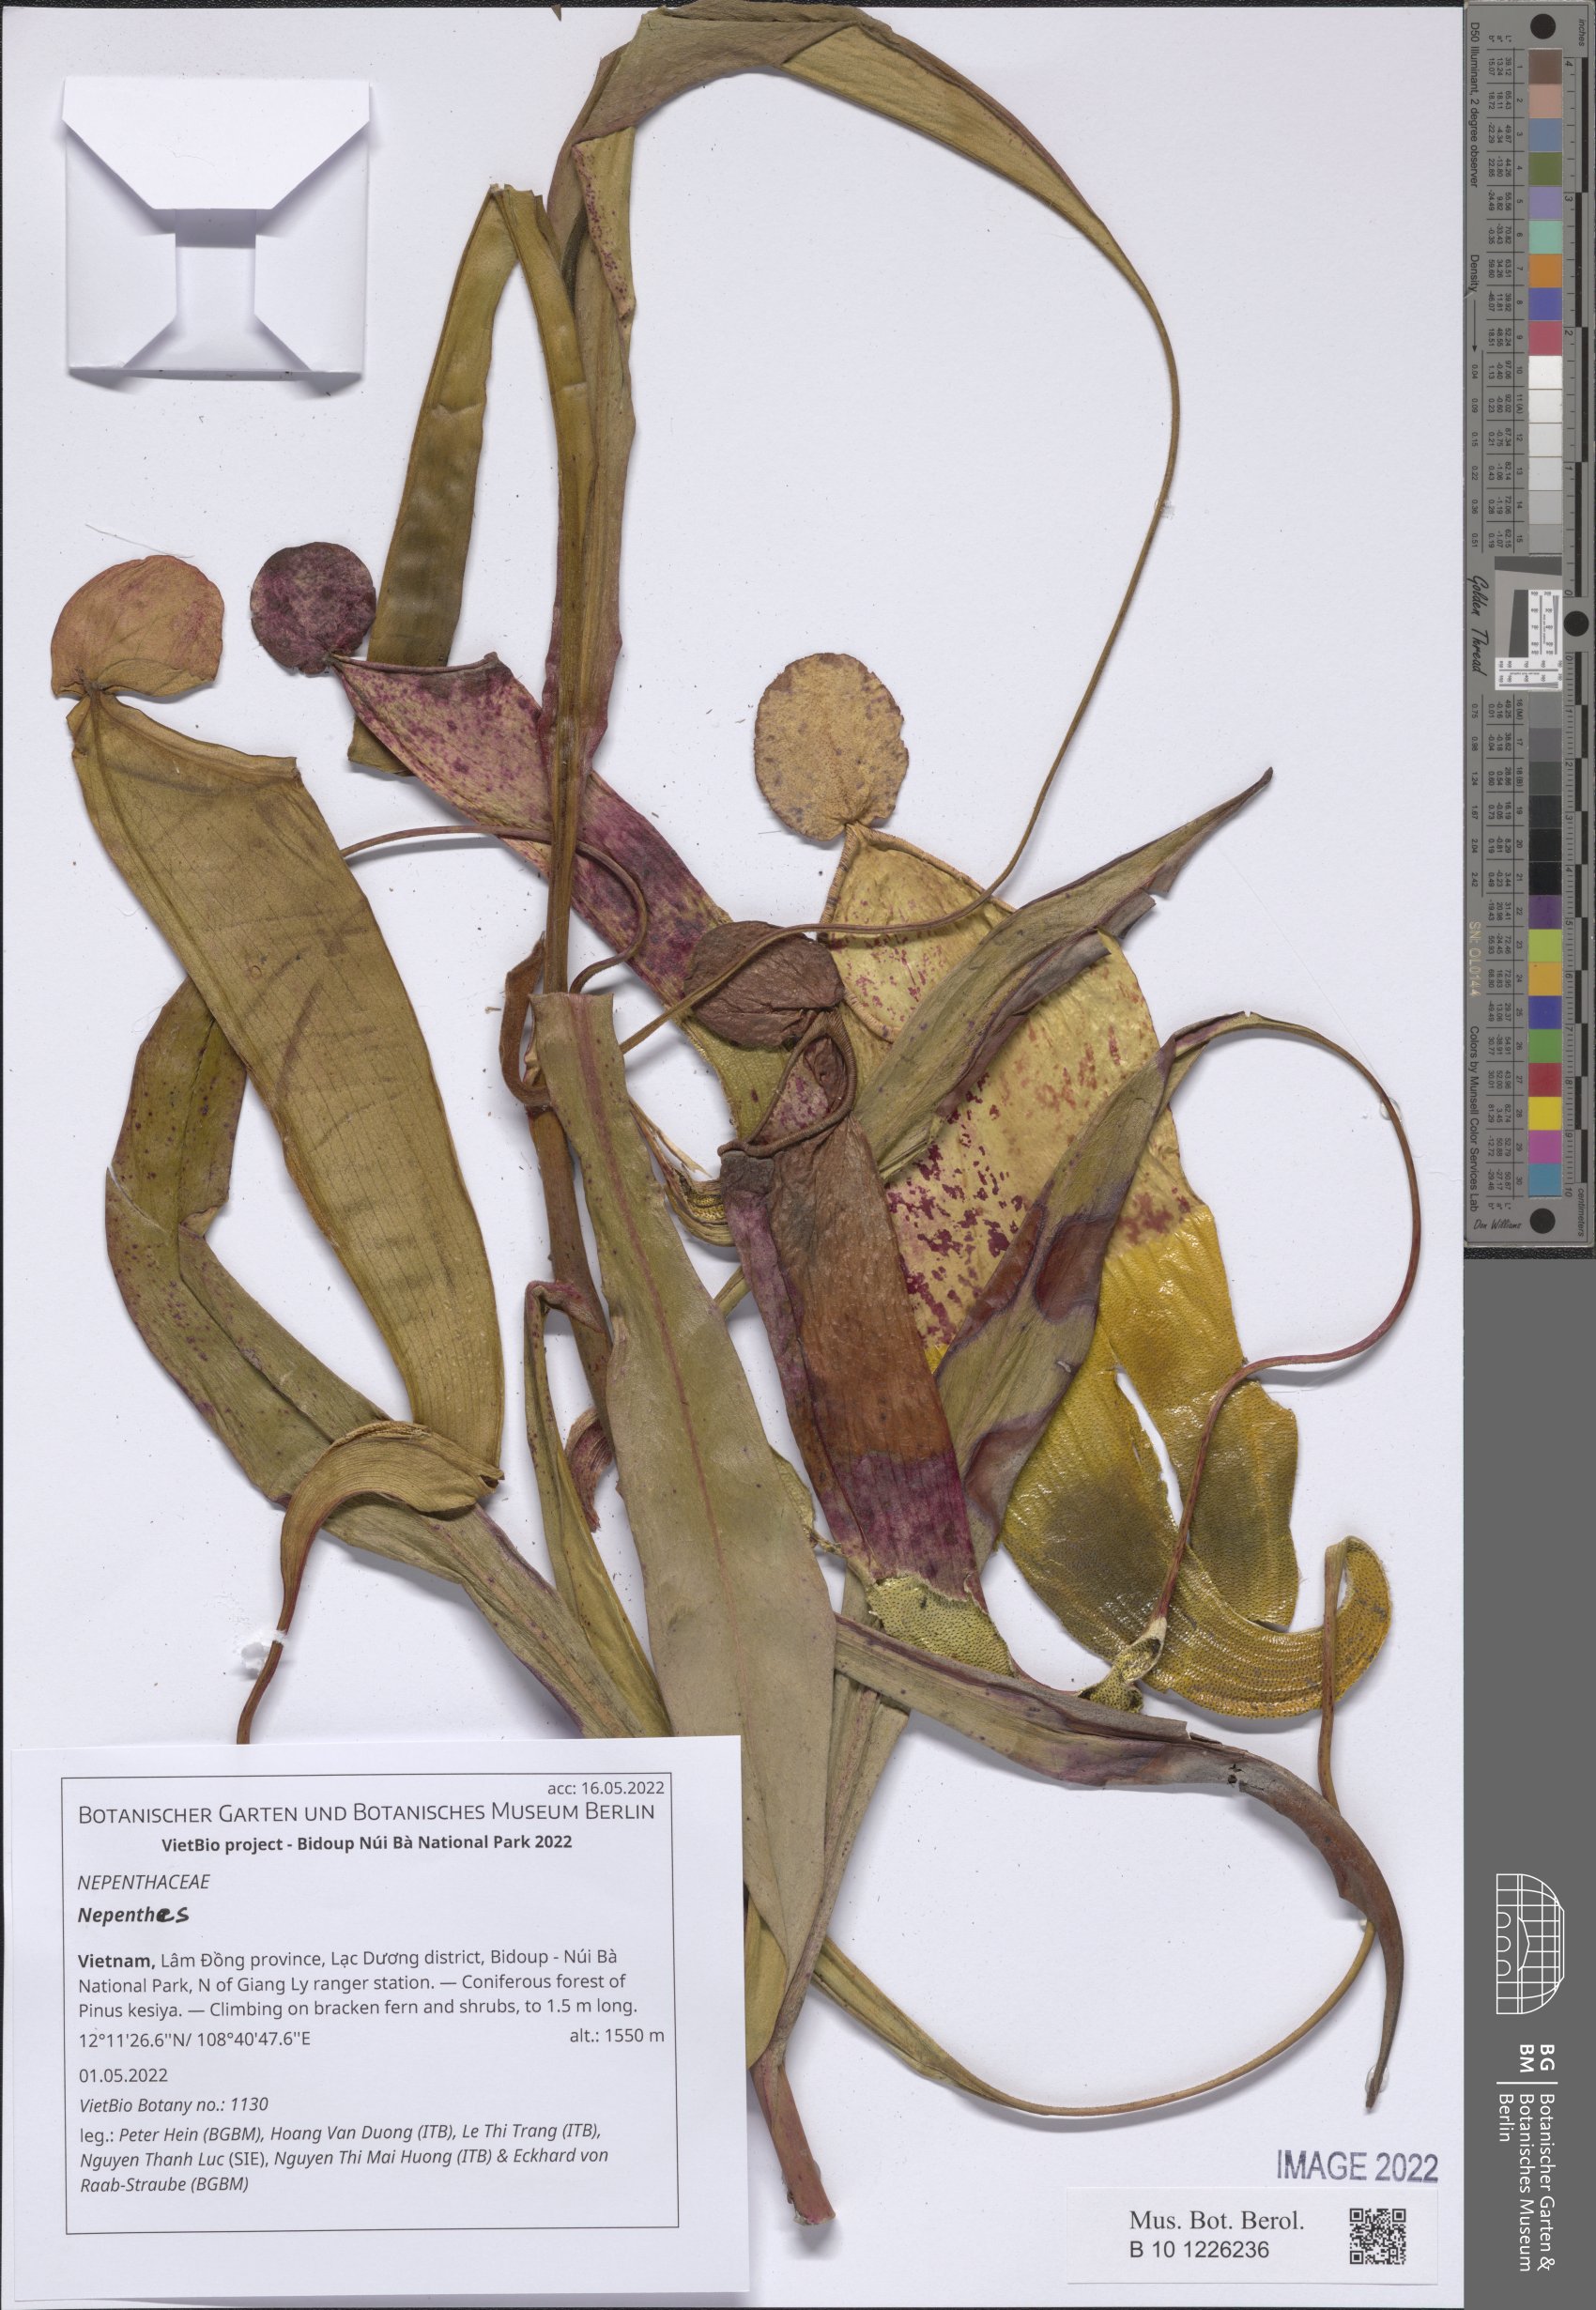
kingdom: Plantae
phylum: Tracheophyta
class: Magnoliopsida
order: Caryophyllales
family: Nepenthaceae
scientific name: Nepenthaceae
